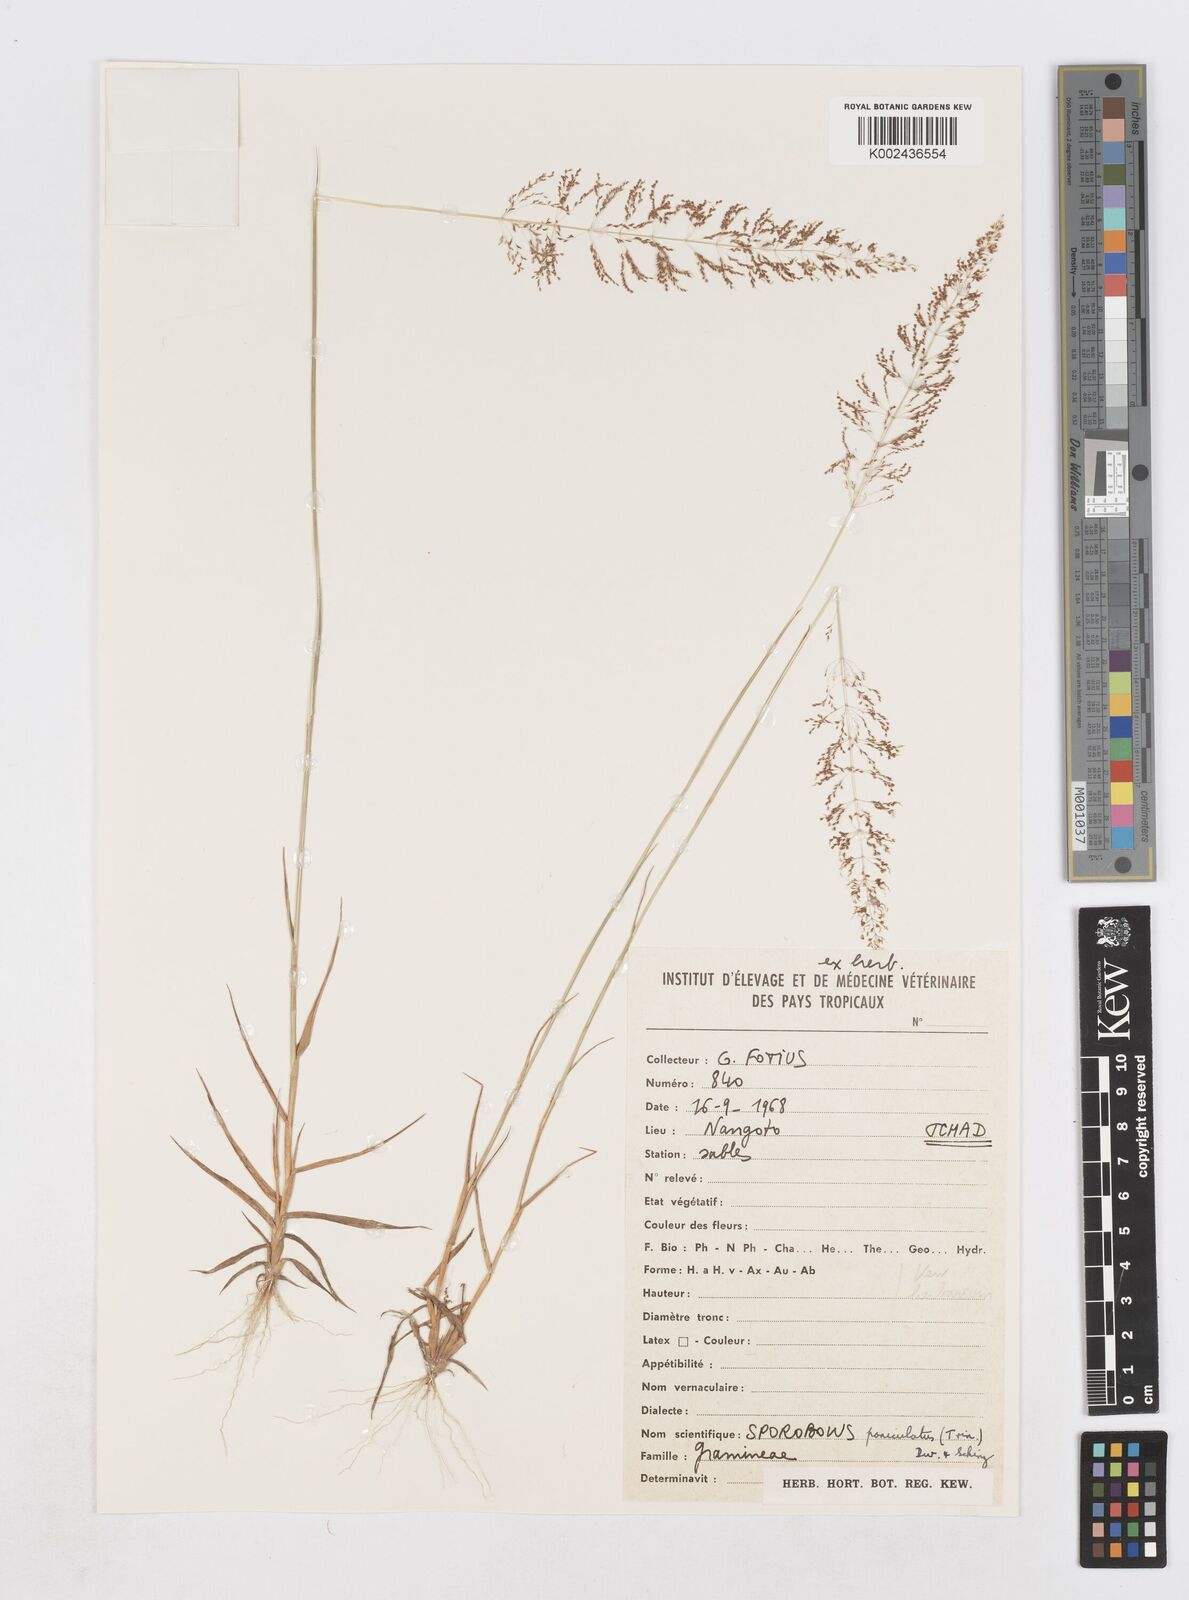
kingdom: Plantae
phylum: Tracheophyta
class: Liliopsida
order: Poales
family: Poaceae
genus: Sporobolus
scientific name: Sporobolus stolzii
